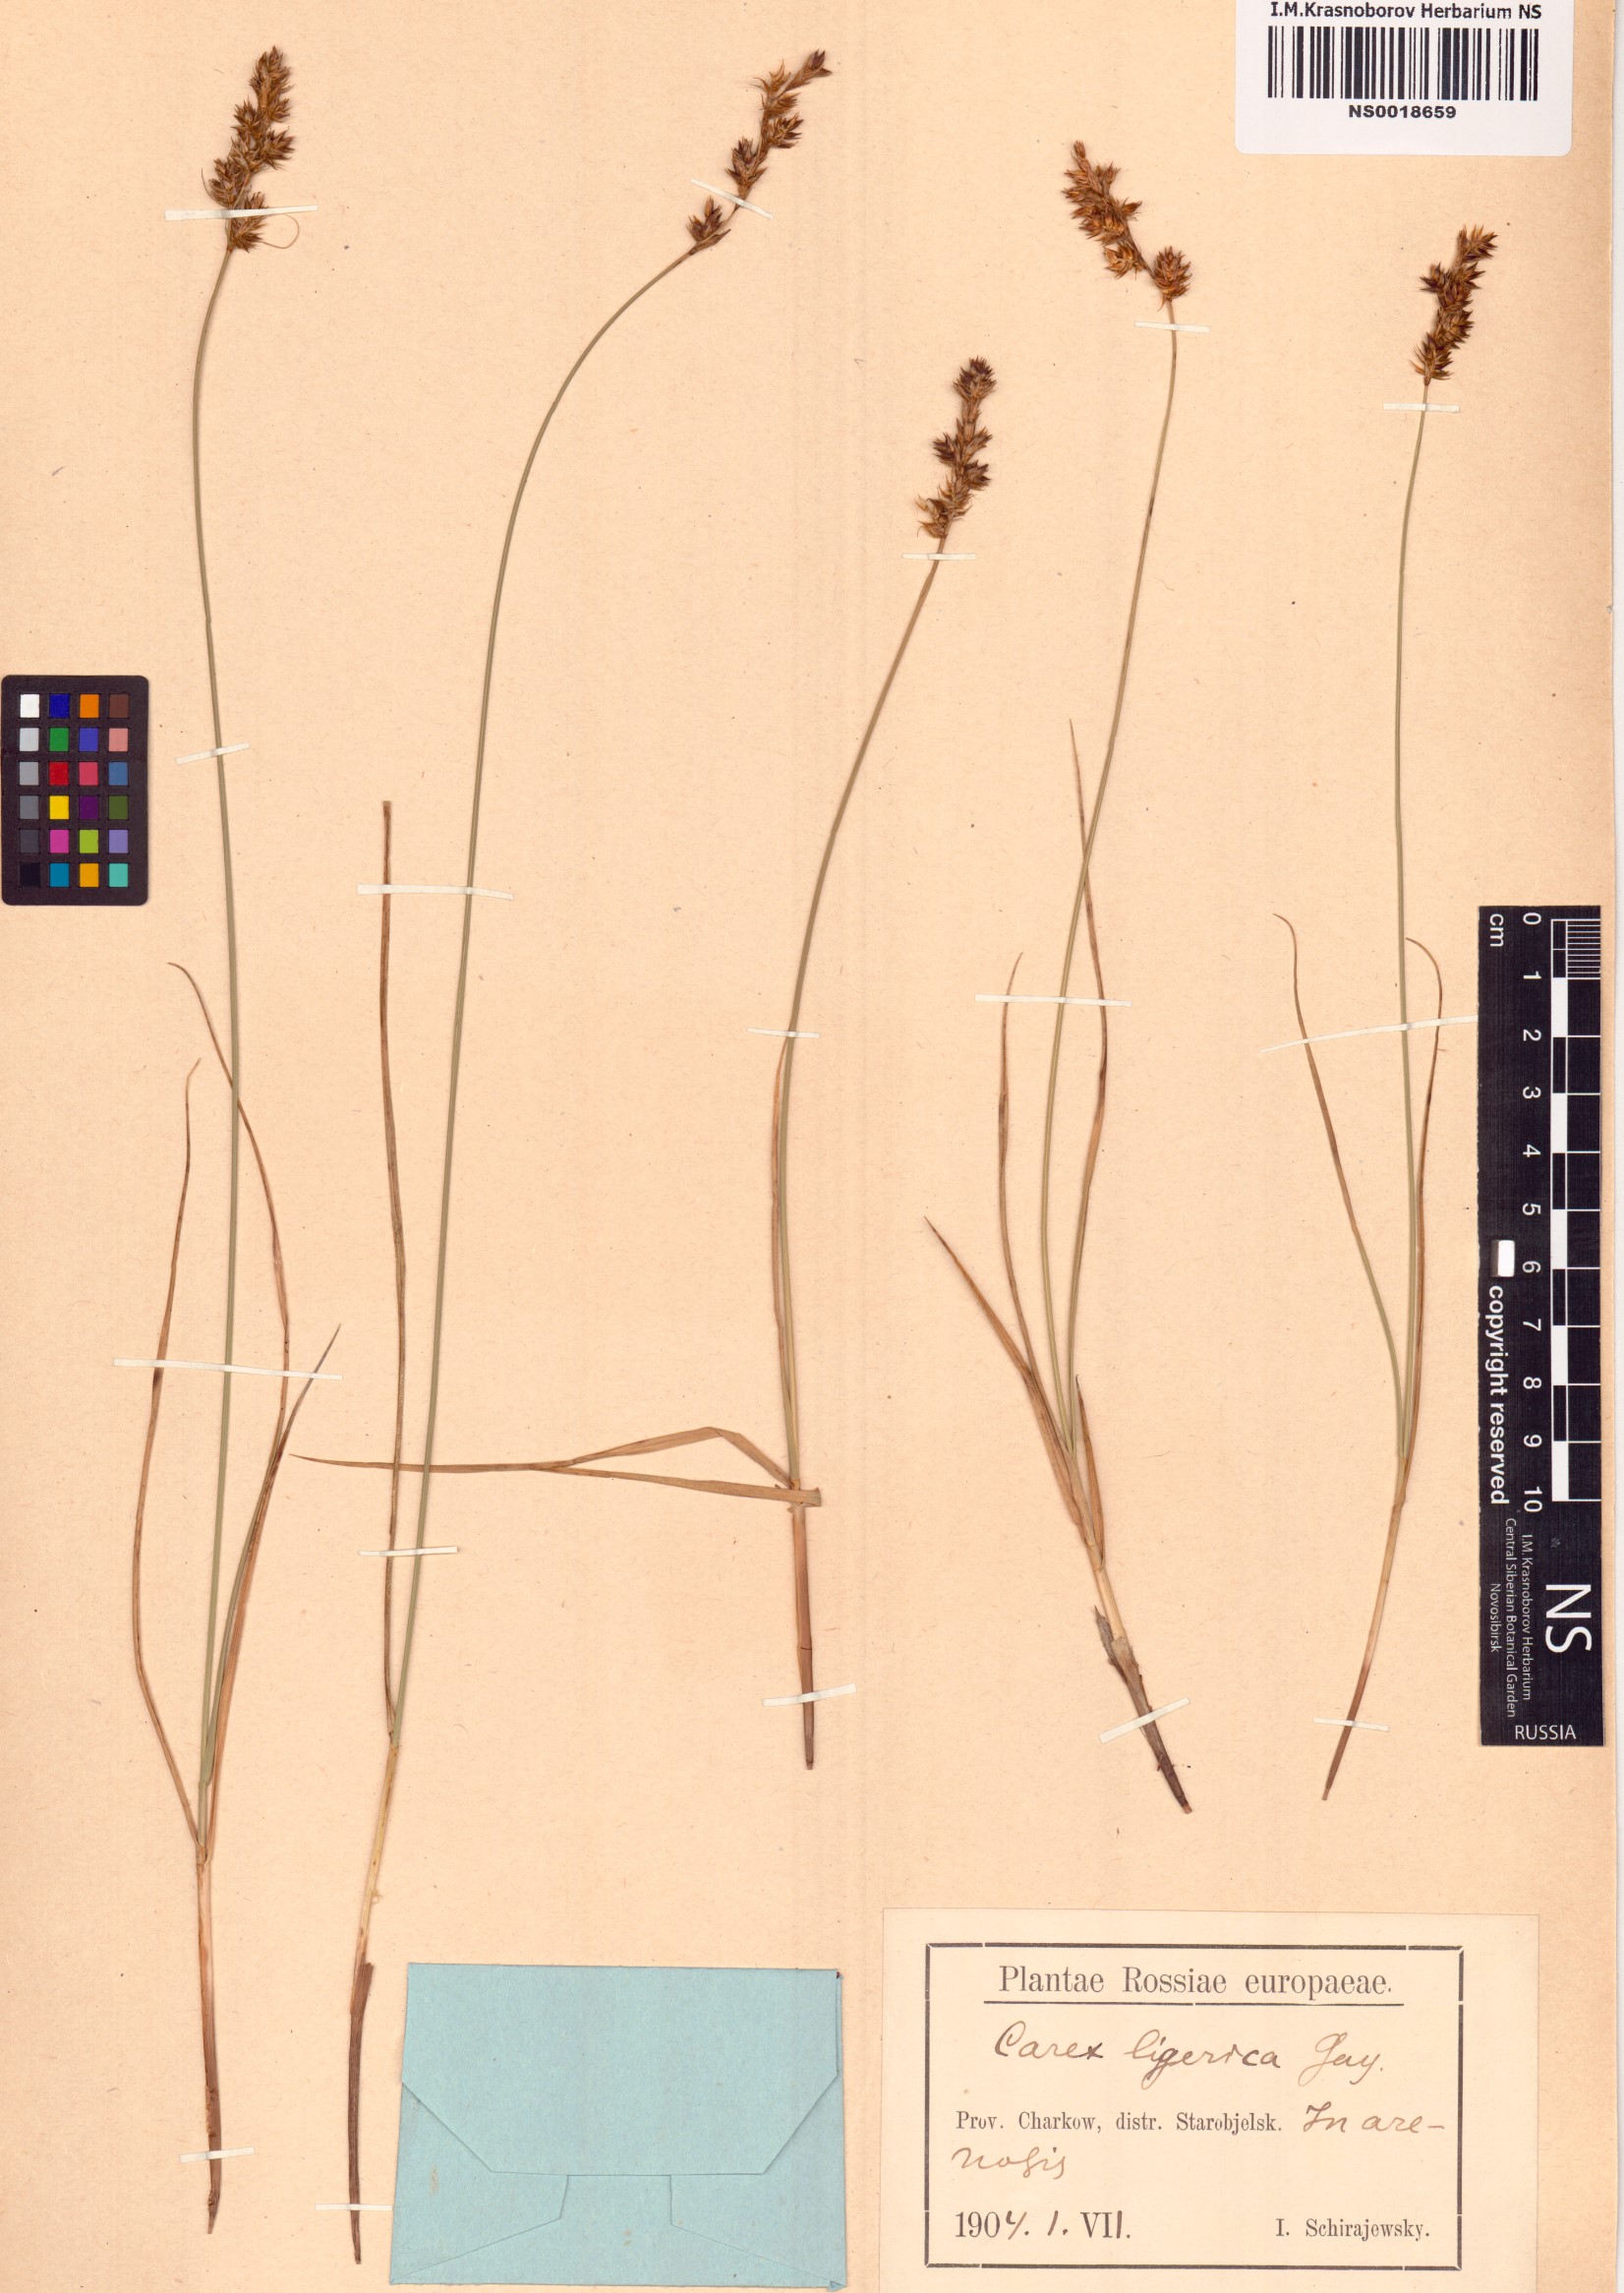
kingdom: Plantae
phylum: Tracheophyta
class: Liliopsida
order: Poales
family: Cyperaceae
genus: Carex
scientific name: Carex colchica
